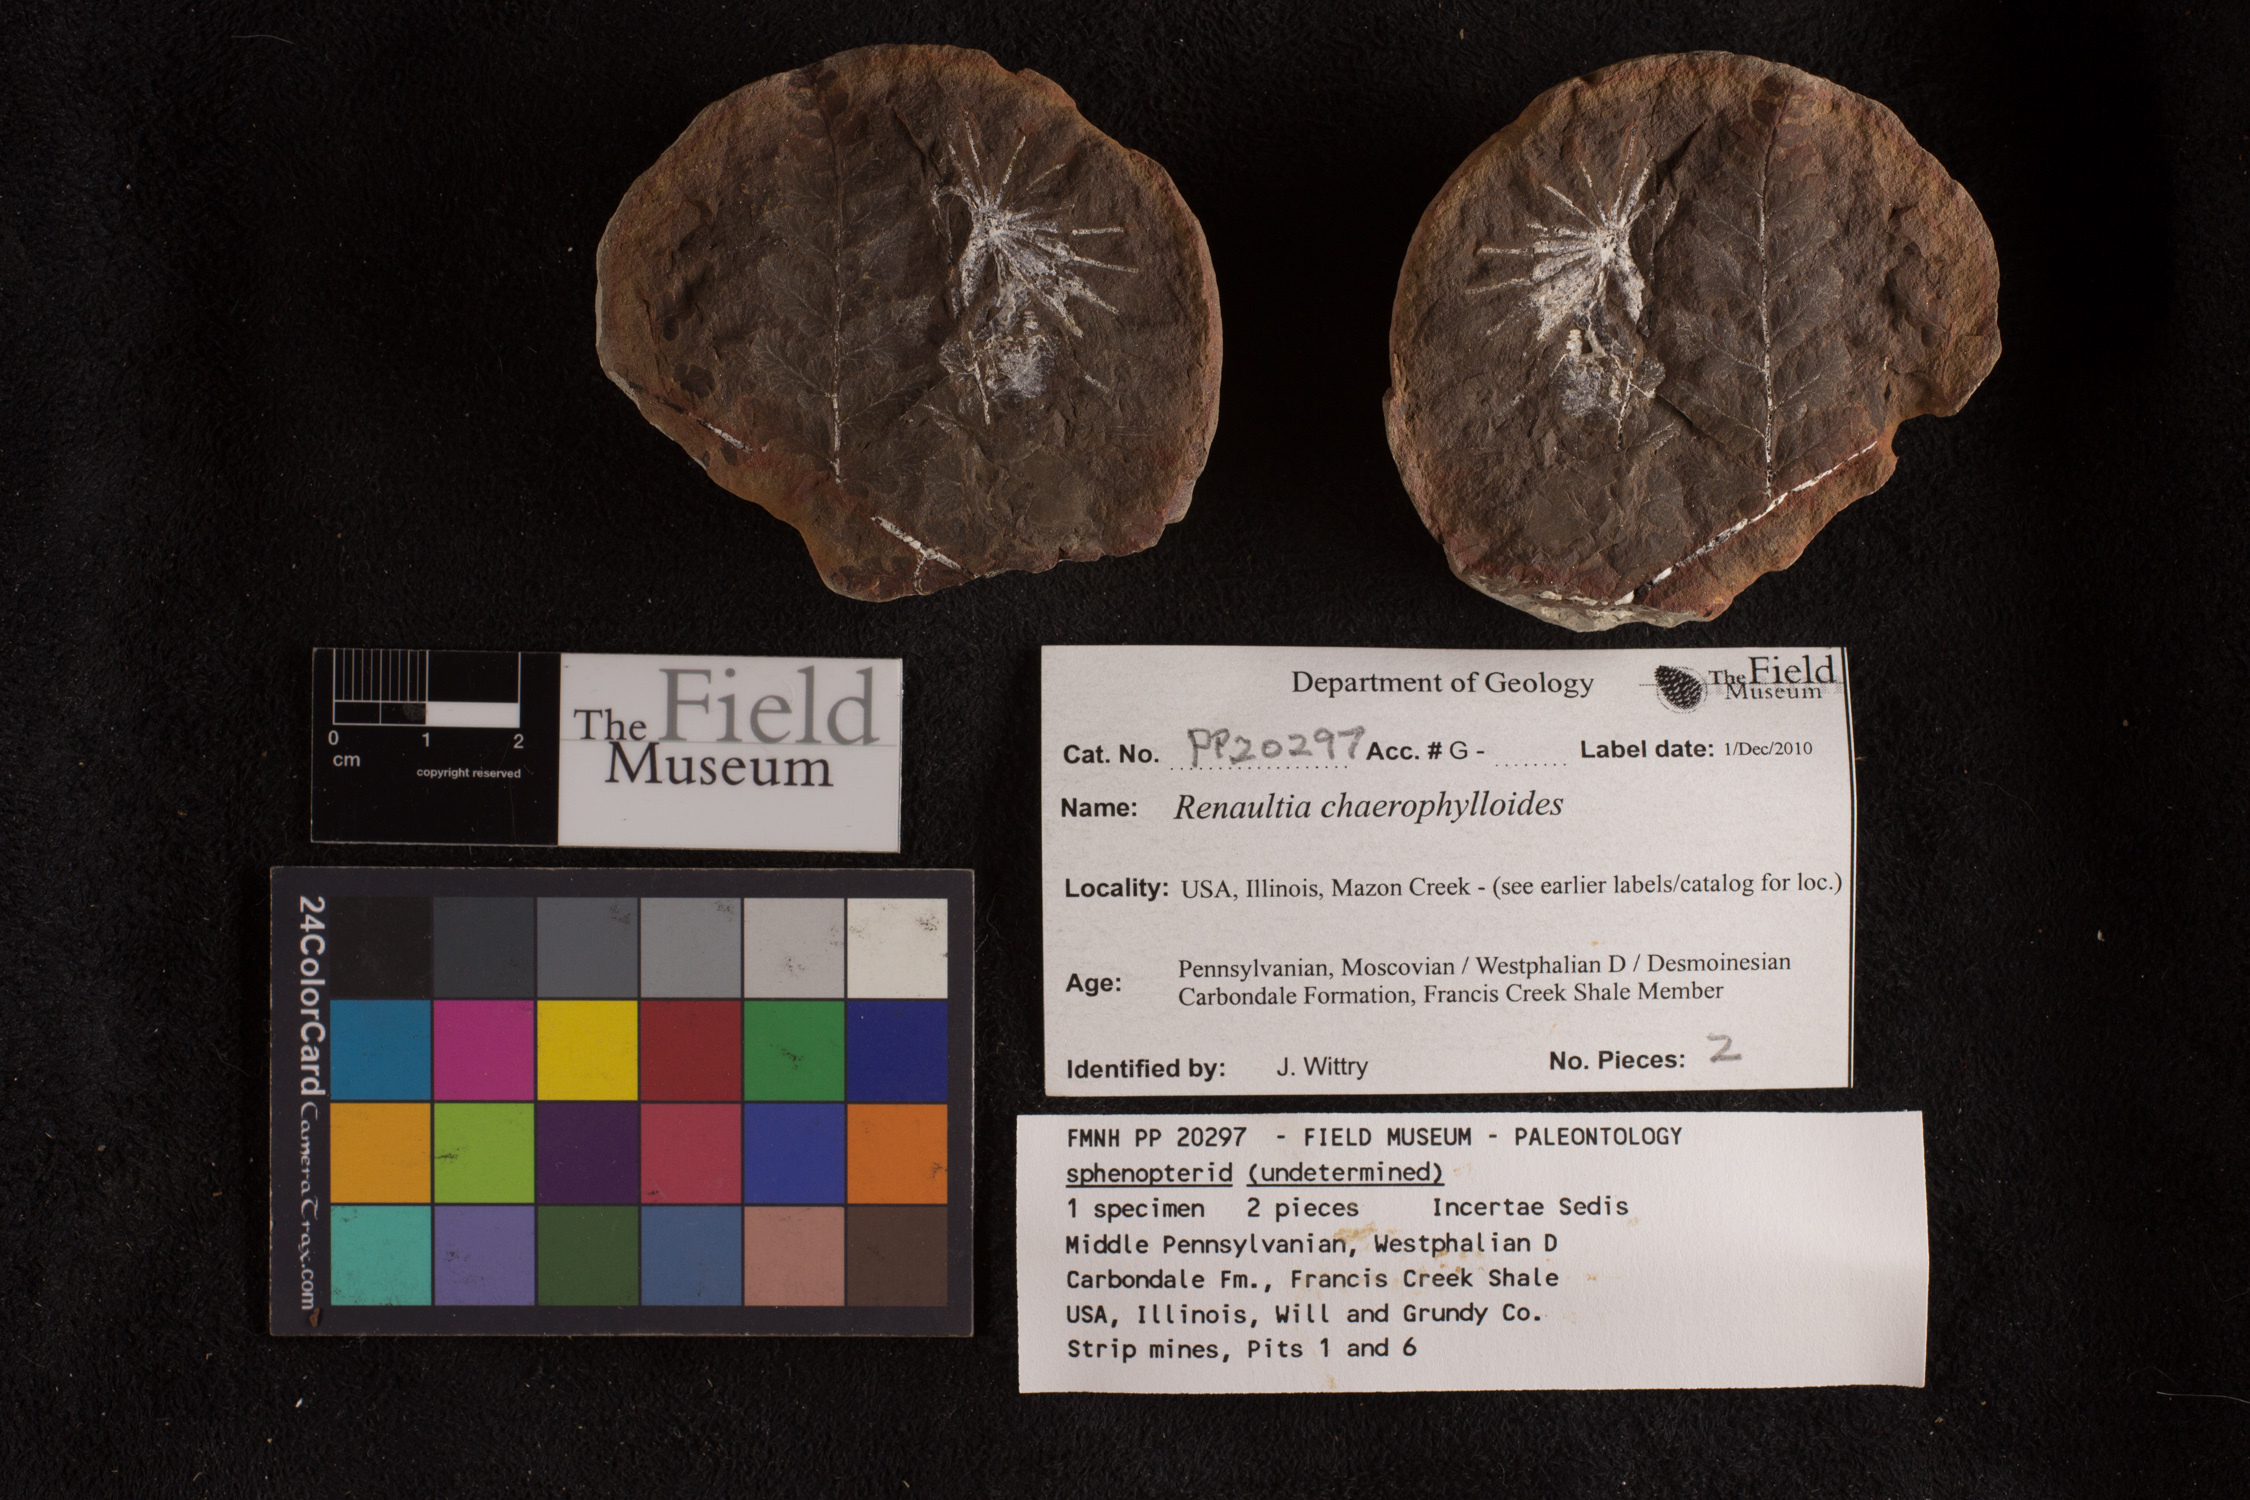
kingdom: Plantae
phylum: Tracheophyta
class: Polypodiopsida
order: Marattiales
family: Marattiaceae
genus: Renaultia
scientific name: Renaultia chaerophylloides
